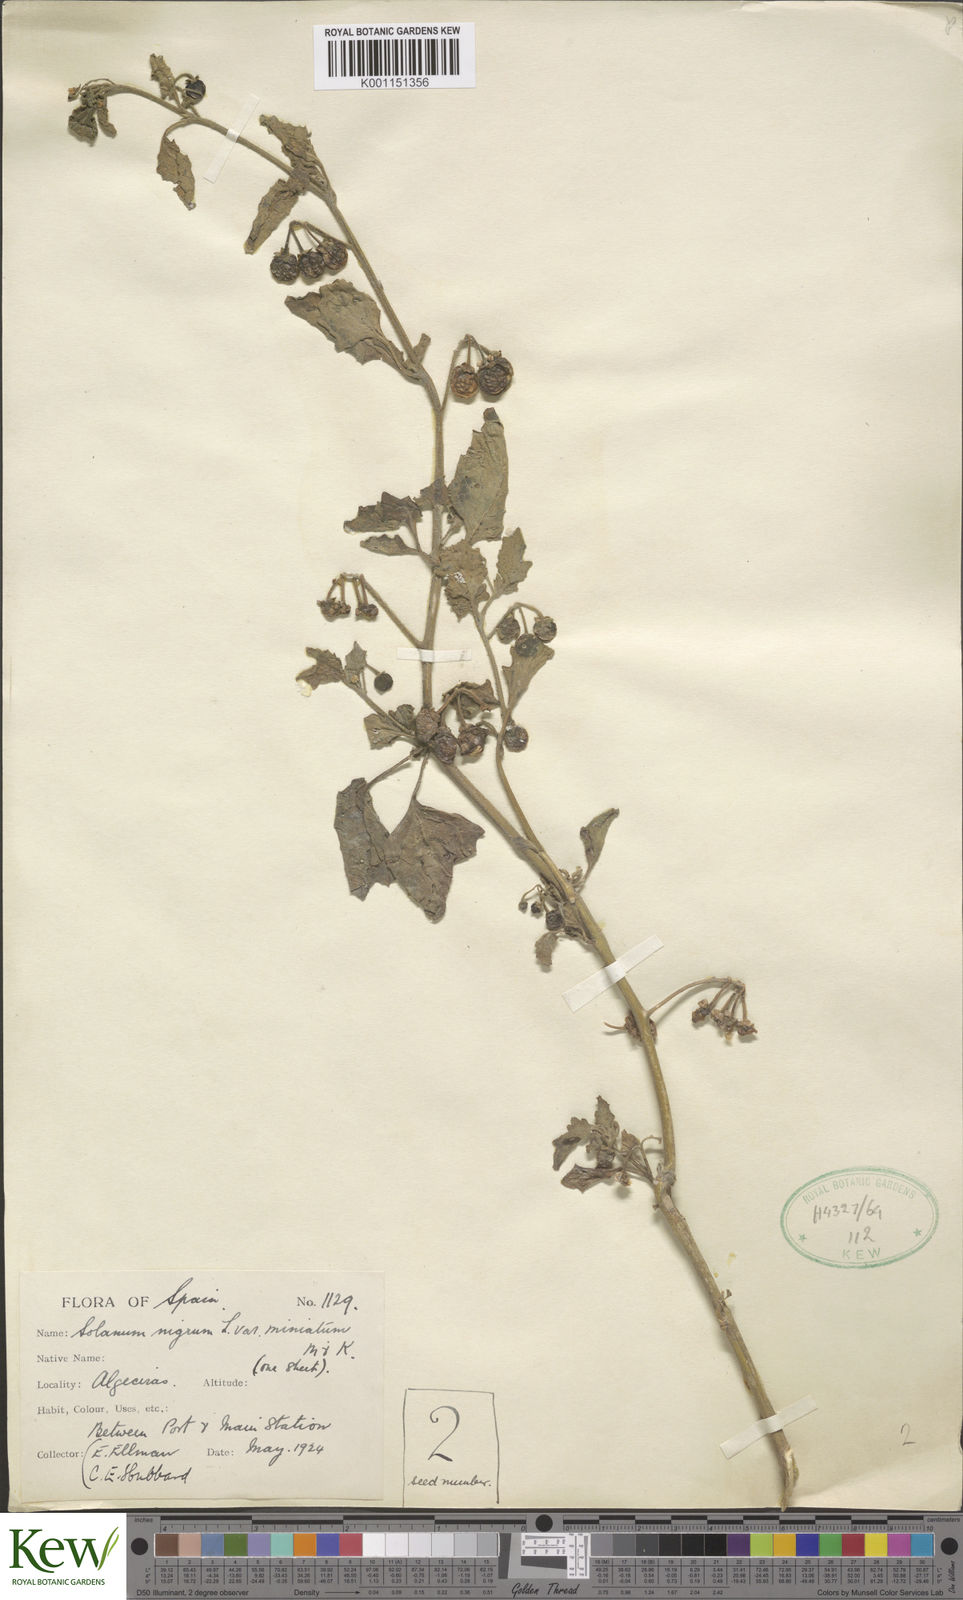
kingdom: Plantae
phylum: Tracheophyta
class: Magnoliopsida
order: Solanales
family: Solanaceae
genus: Solanum
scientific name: Solanum alatum
